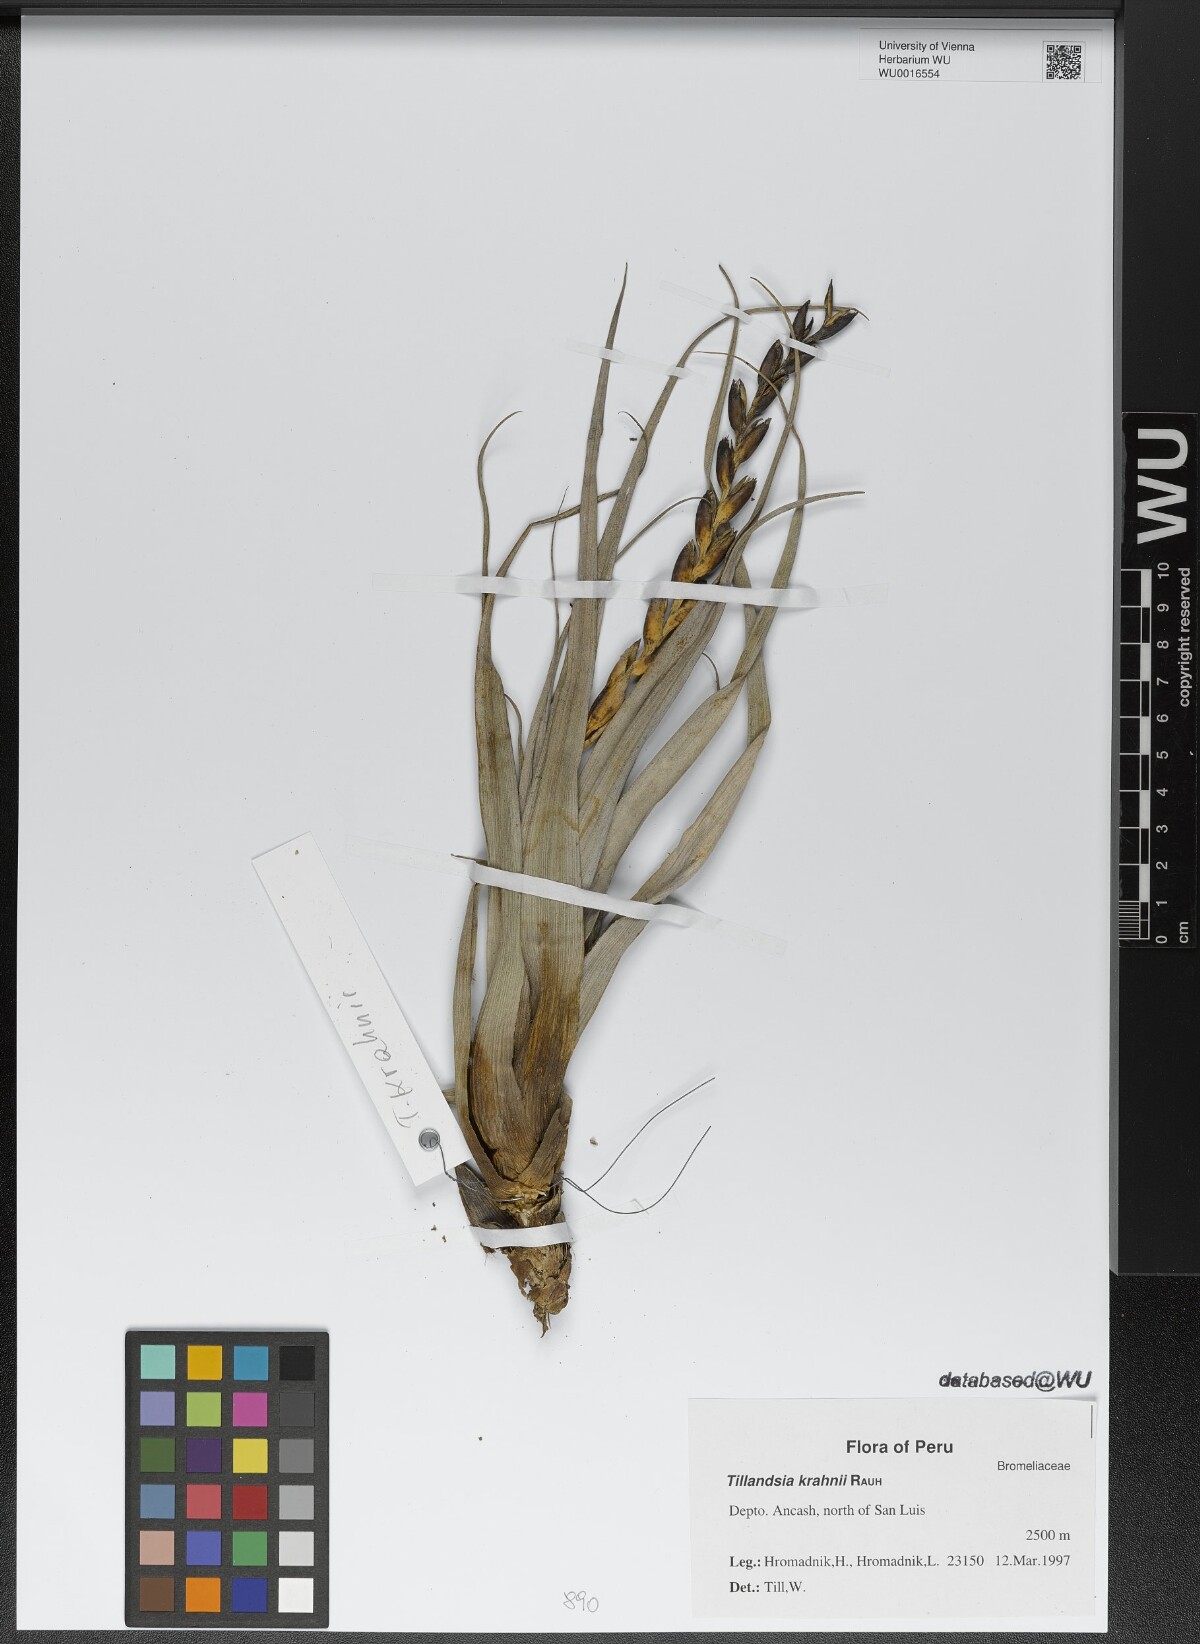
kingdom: Plantae
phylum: Tracheophyta
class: Liliopsida
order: Poales
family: Bromeliaceae
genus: Tillandsia
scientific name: Tillandsia krahnii
